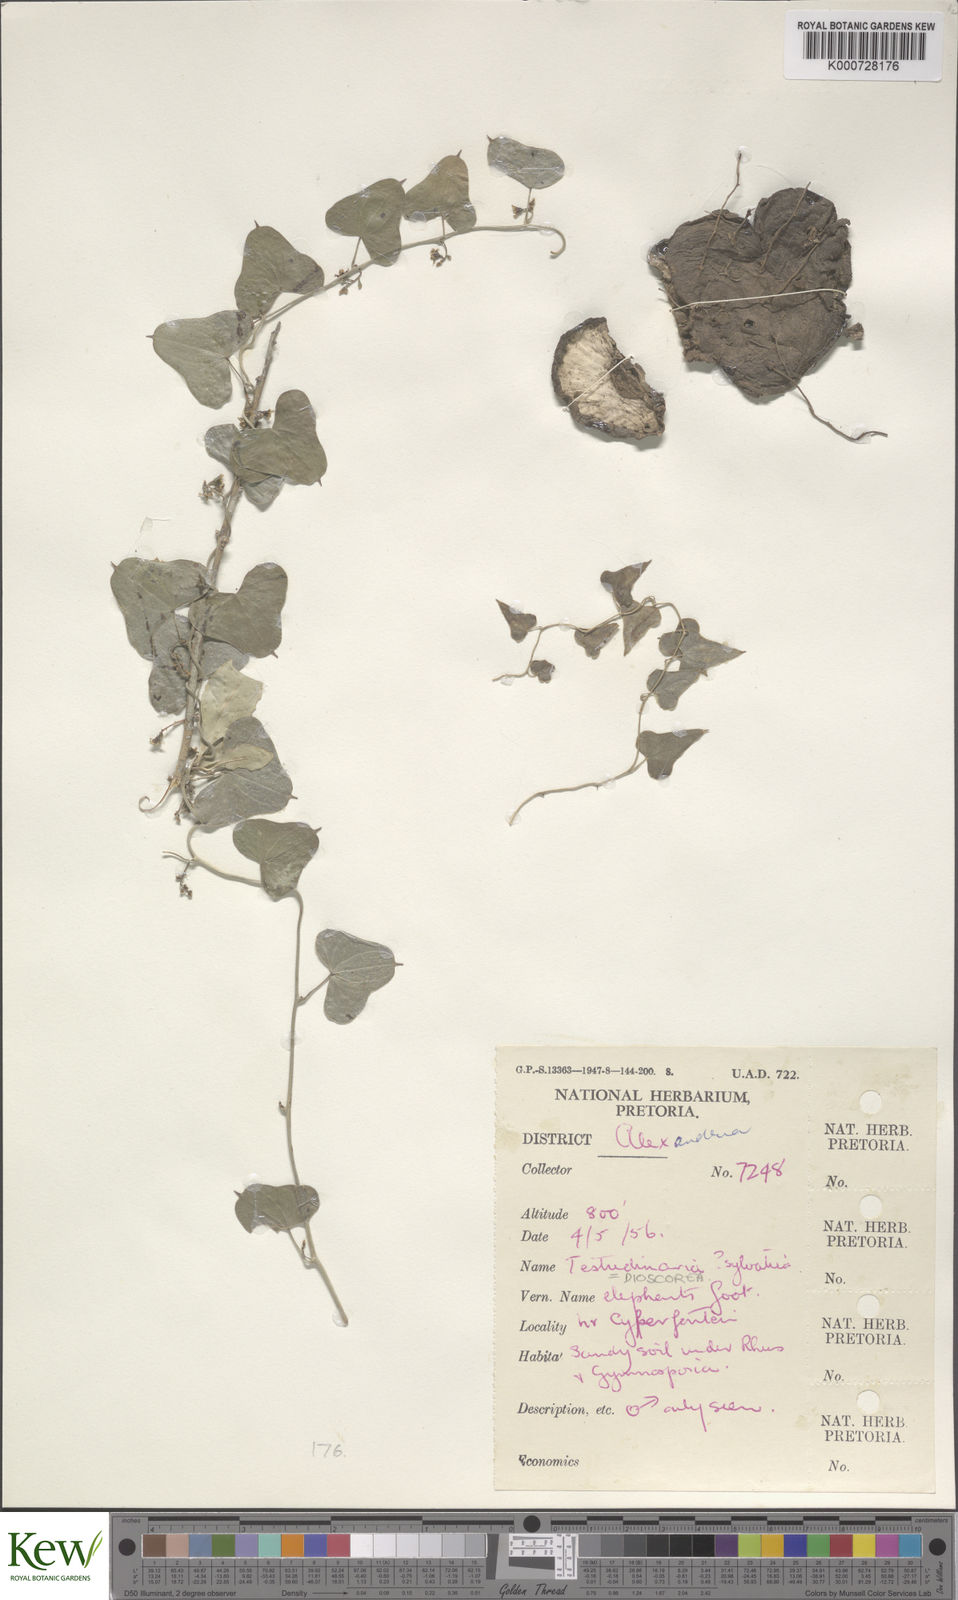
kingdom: Plantae
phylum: Tracheophyta
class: Liliopsida
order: Dioscoreales
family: Dioscoreaceae
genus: Dioscorea
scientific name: Dioscorea sylvatica
